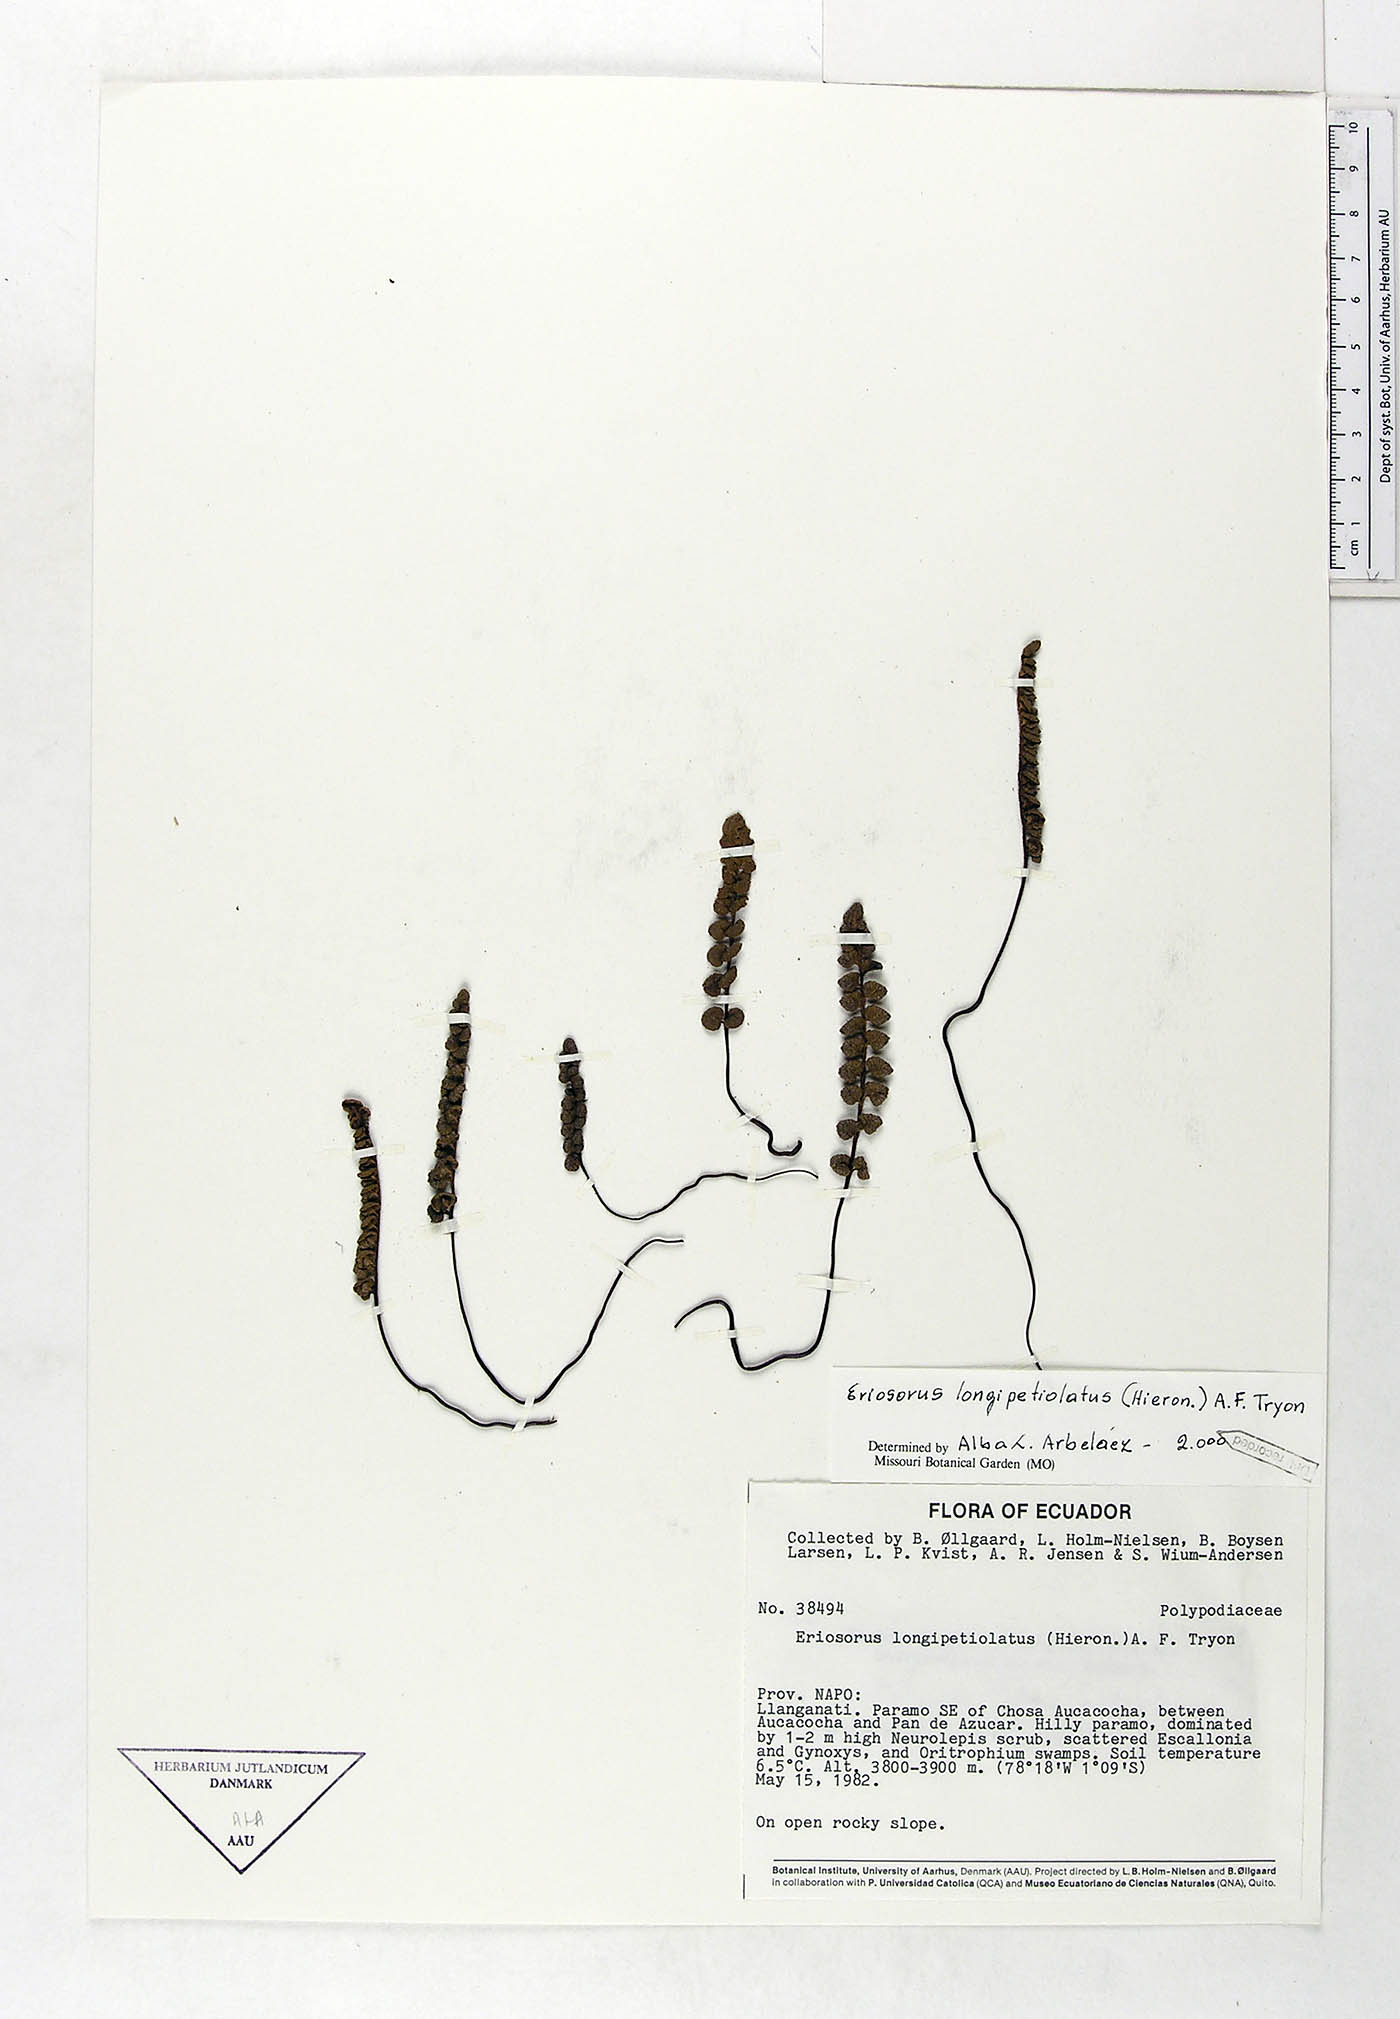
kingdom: Plantae
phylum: Tracheophyta
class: Polypodiopsida
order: Polypodiales
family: Pteridaceae
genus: Jamesonia
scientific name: Jamesonia longipetiolata
